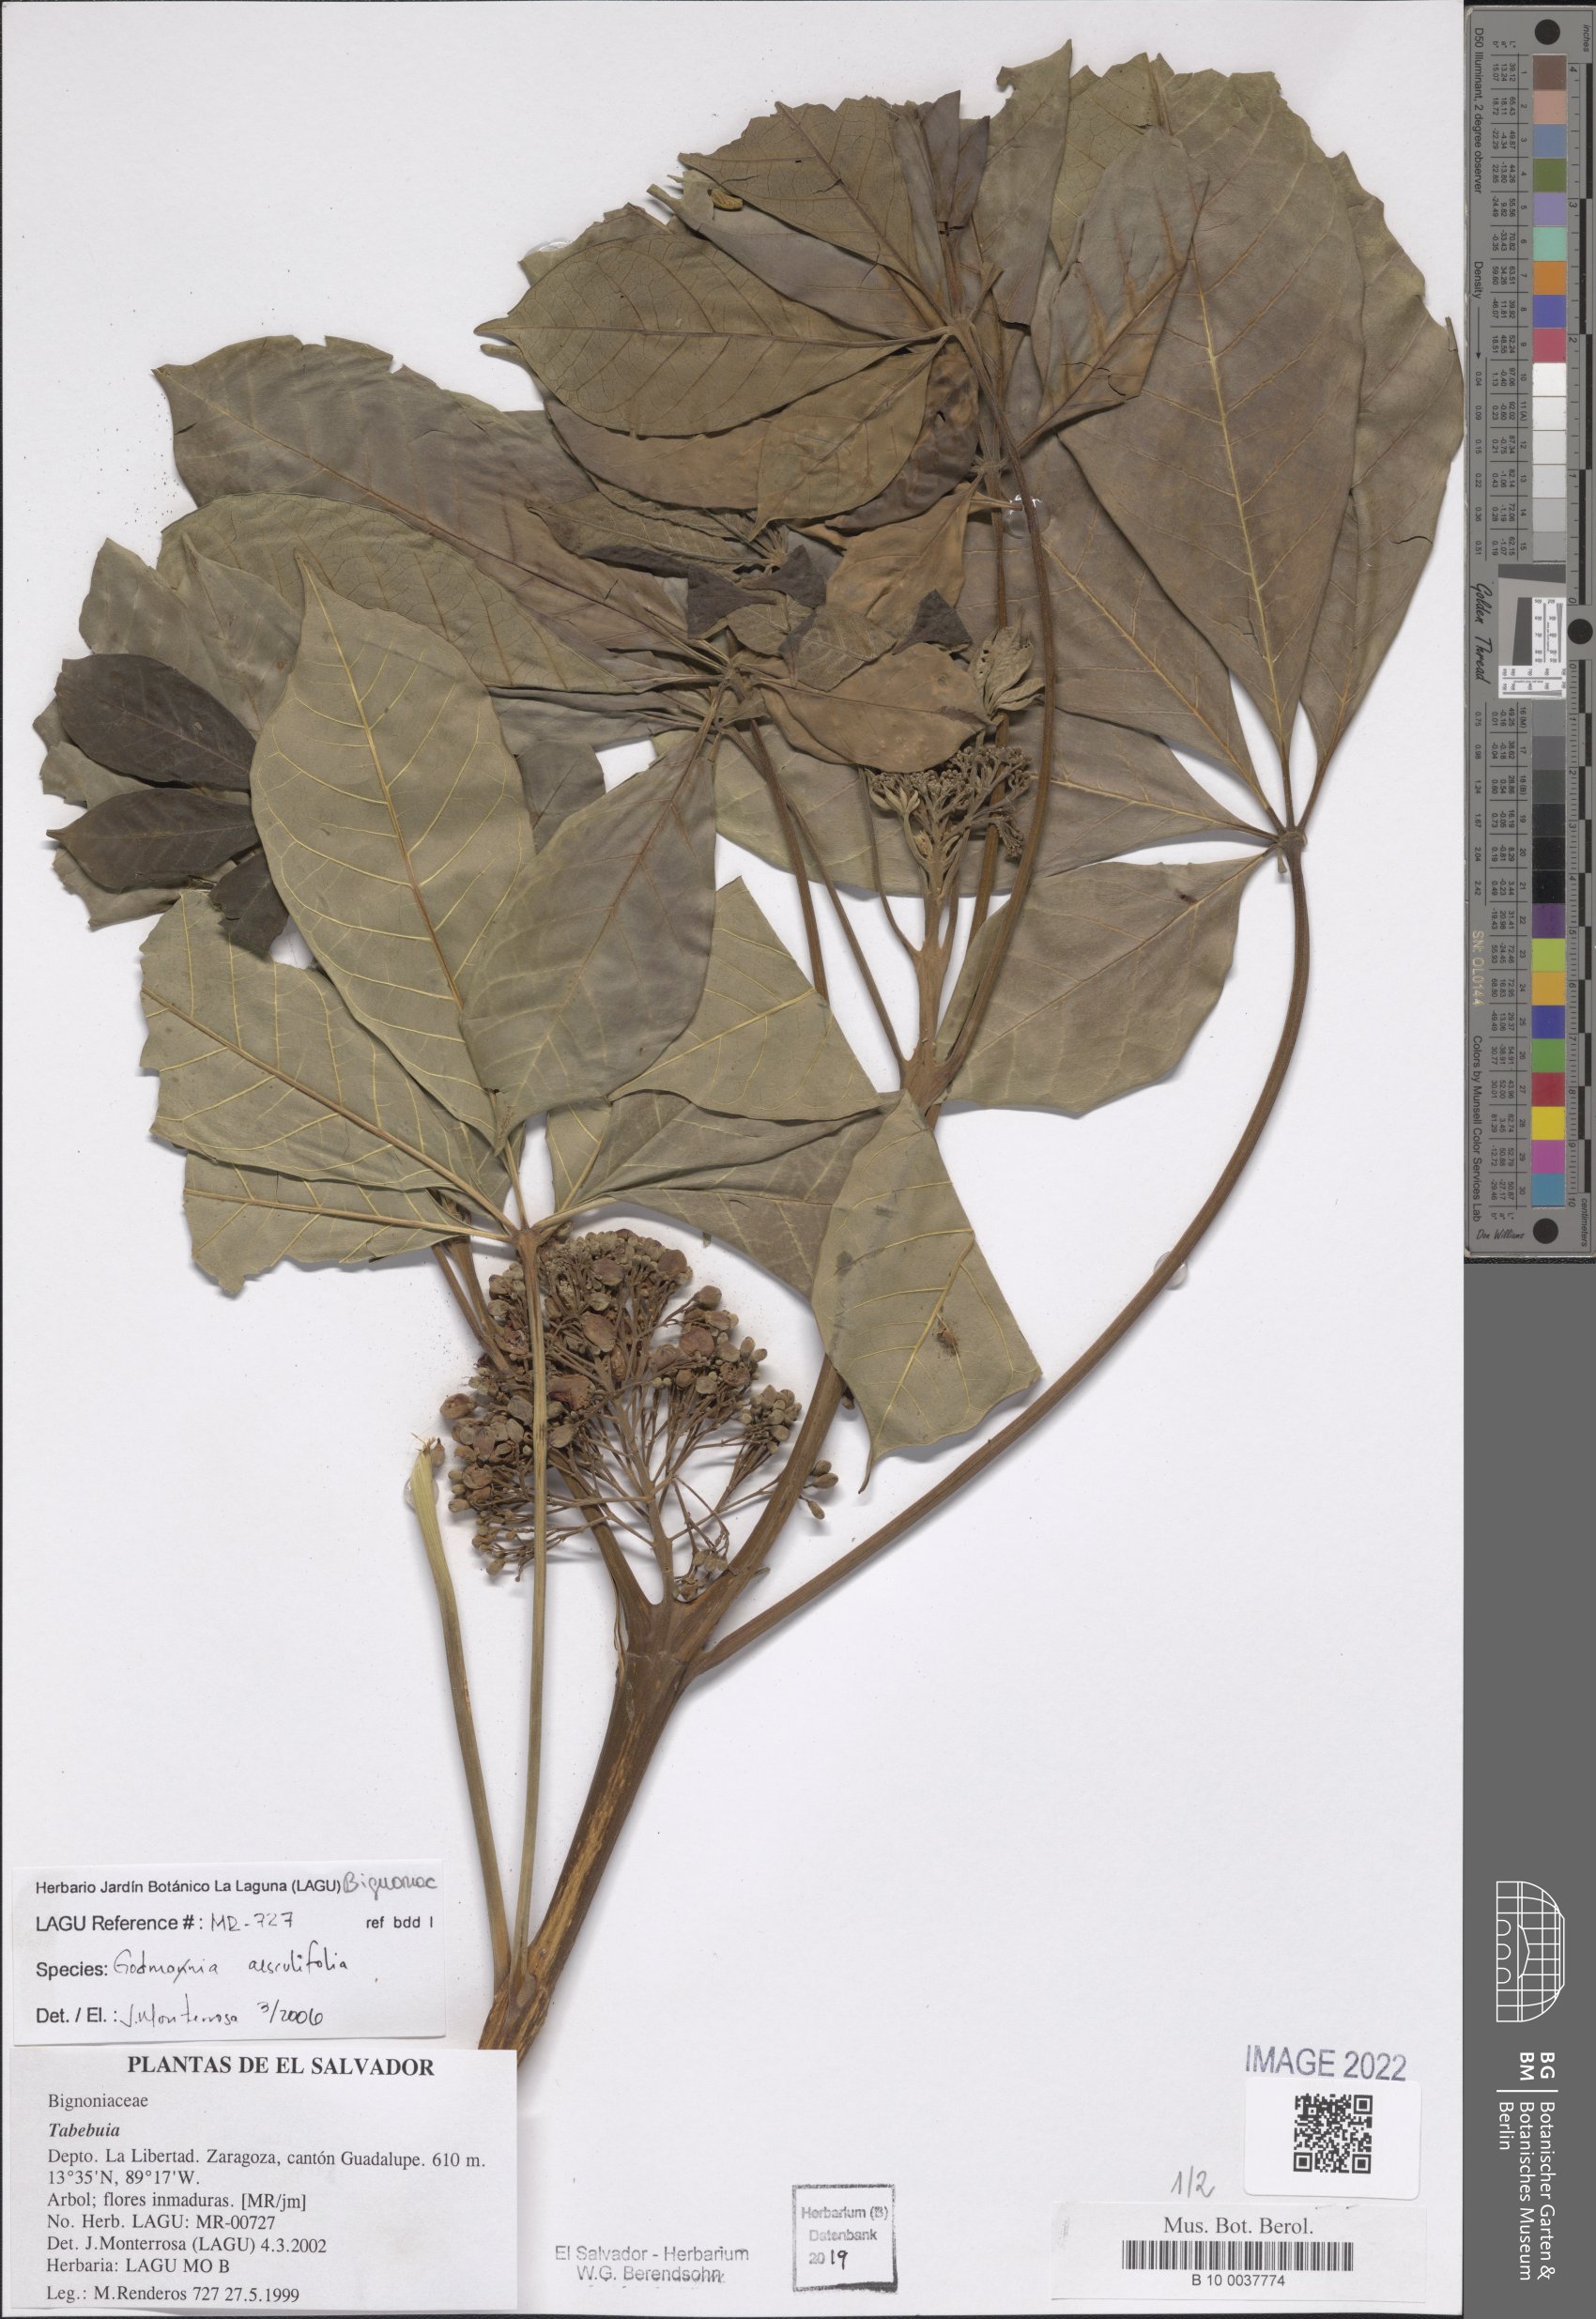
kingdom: Plantae
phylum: Tracheophyta
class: Magnoliopsida
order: Lamiales
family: Bignoniaceae
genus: Godmania
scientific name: Godmania aesculifolia
